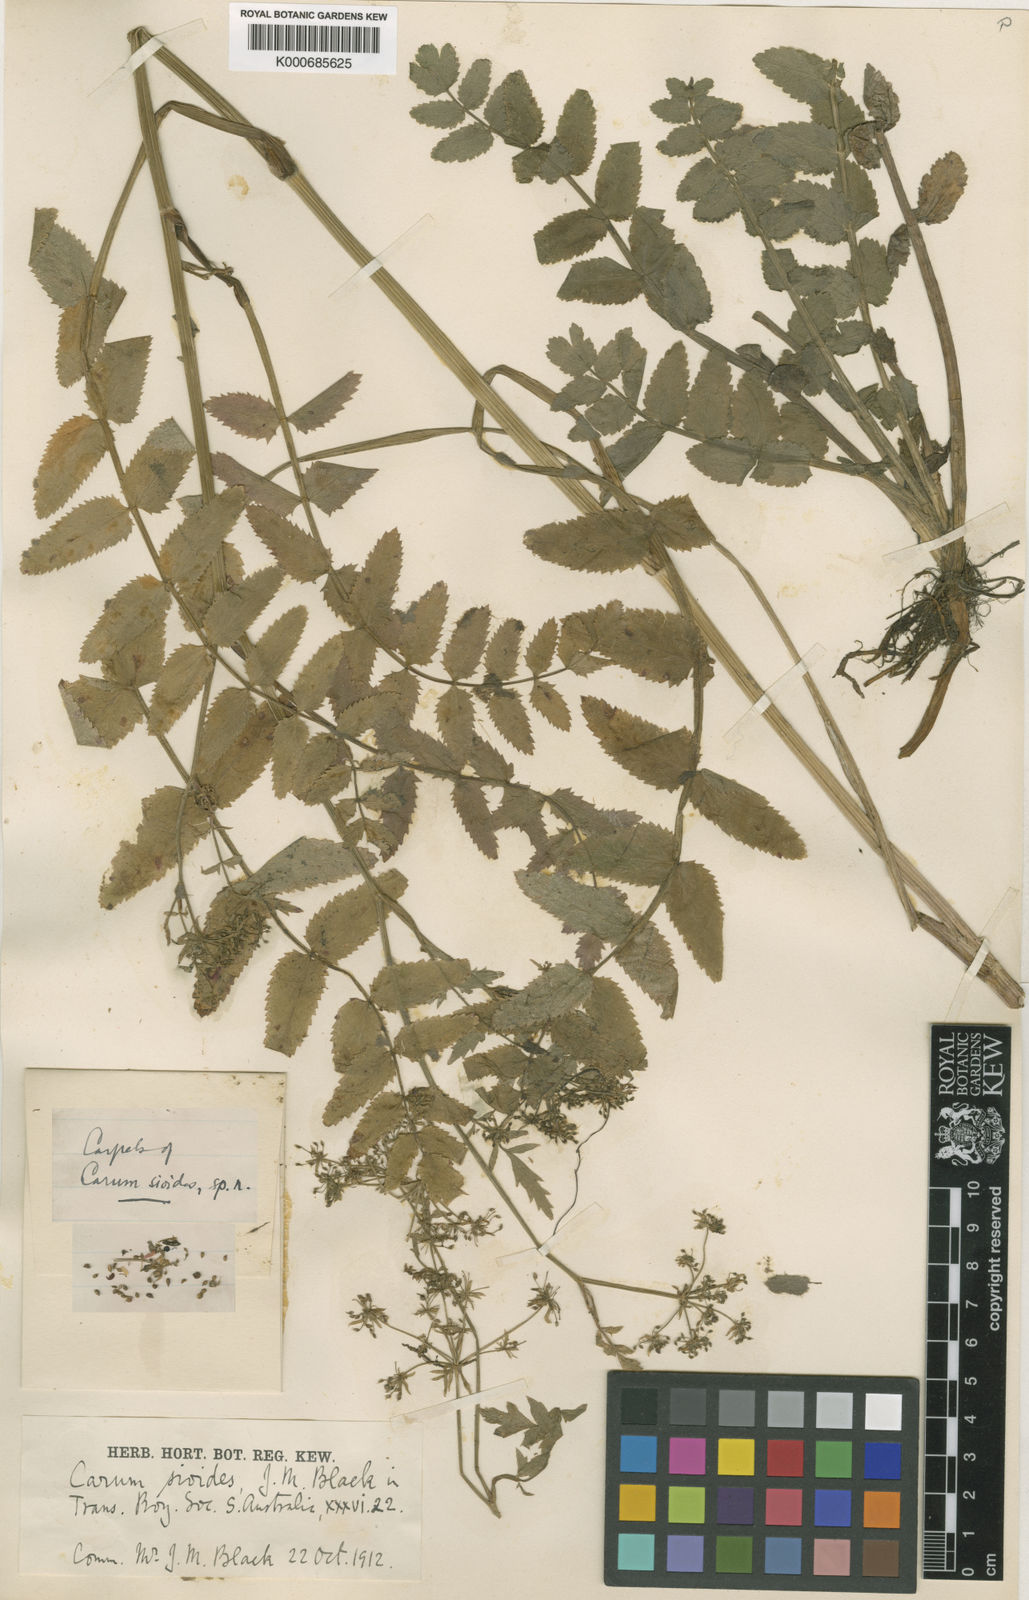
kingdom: Plantae
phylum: Tracheophyta
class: Magnoliopsida
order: Apiales
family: Apiaceae
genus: Berula
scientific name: Berula erecta
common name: Lesser water-parsnip
